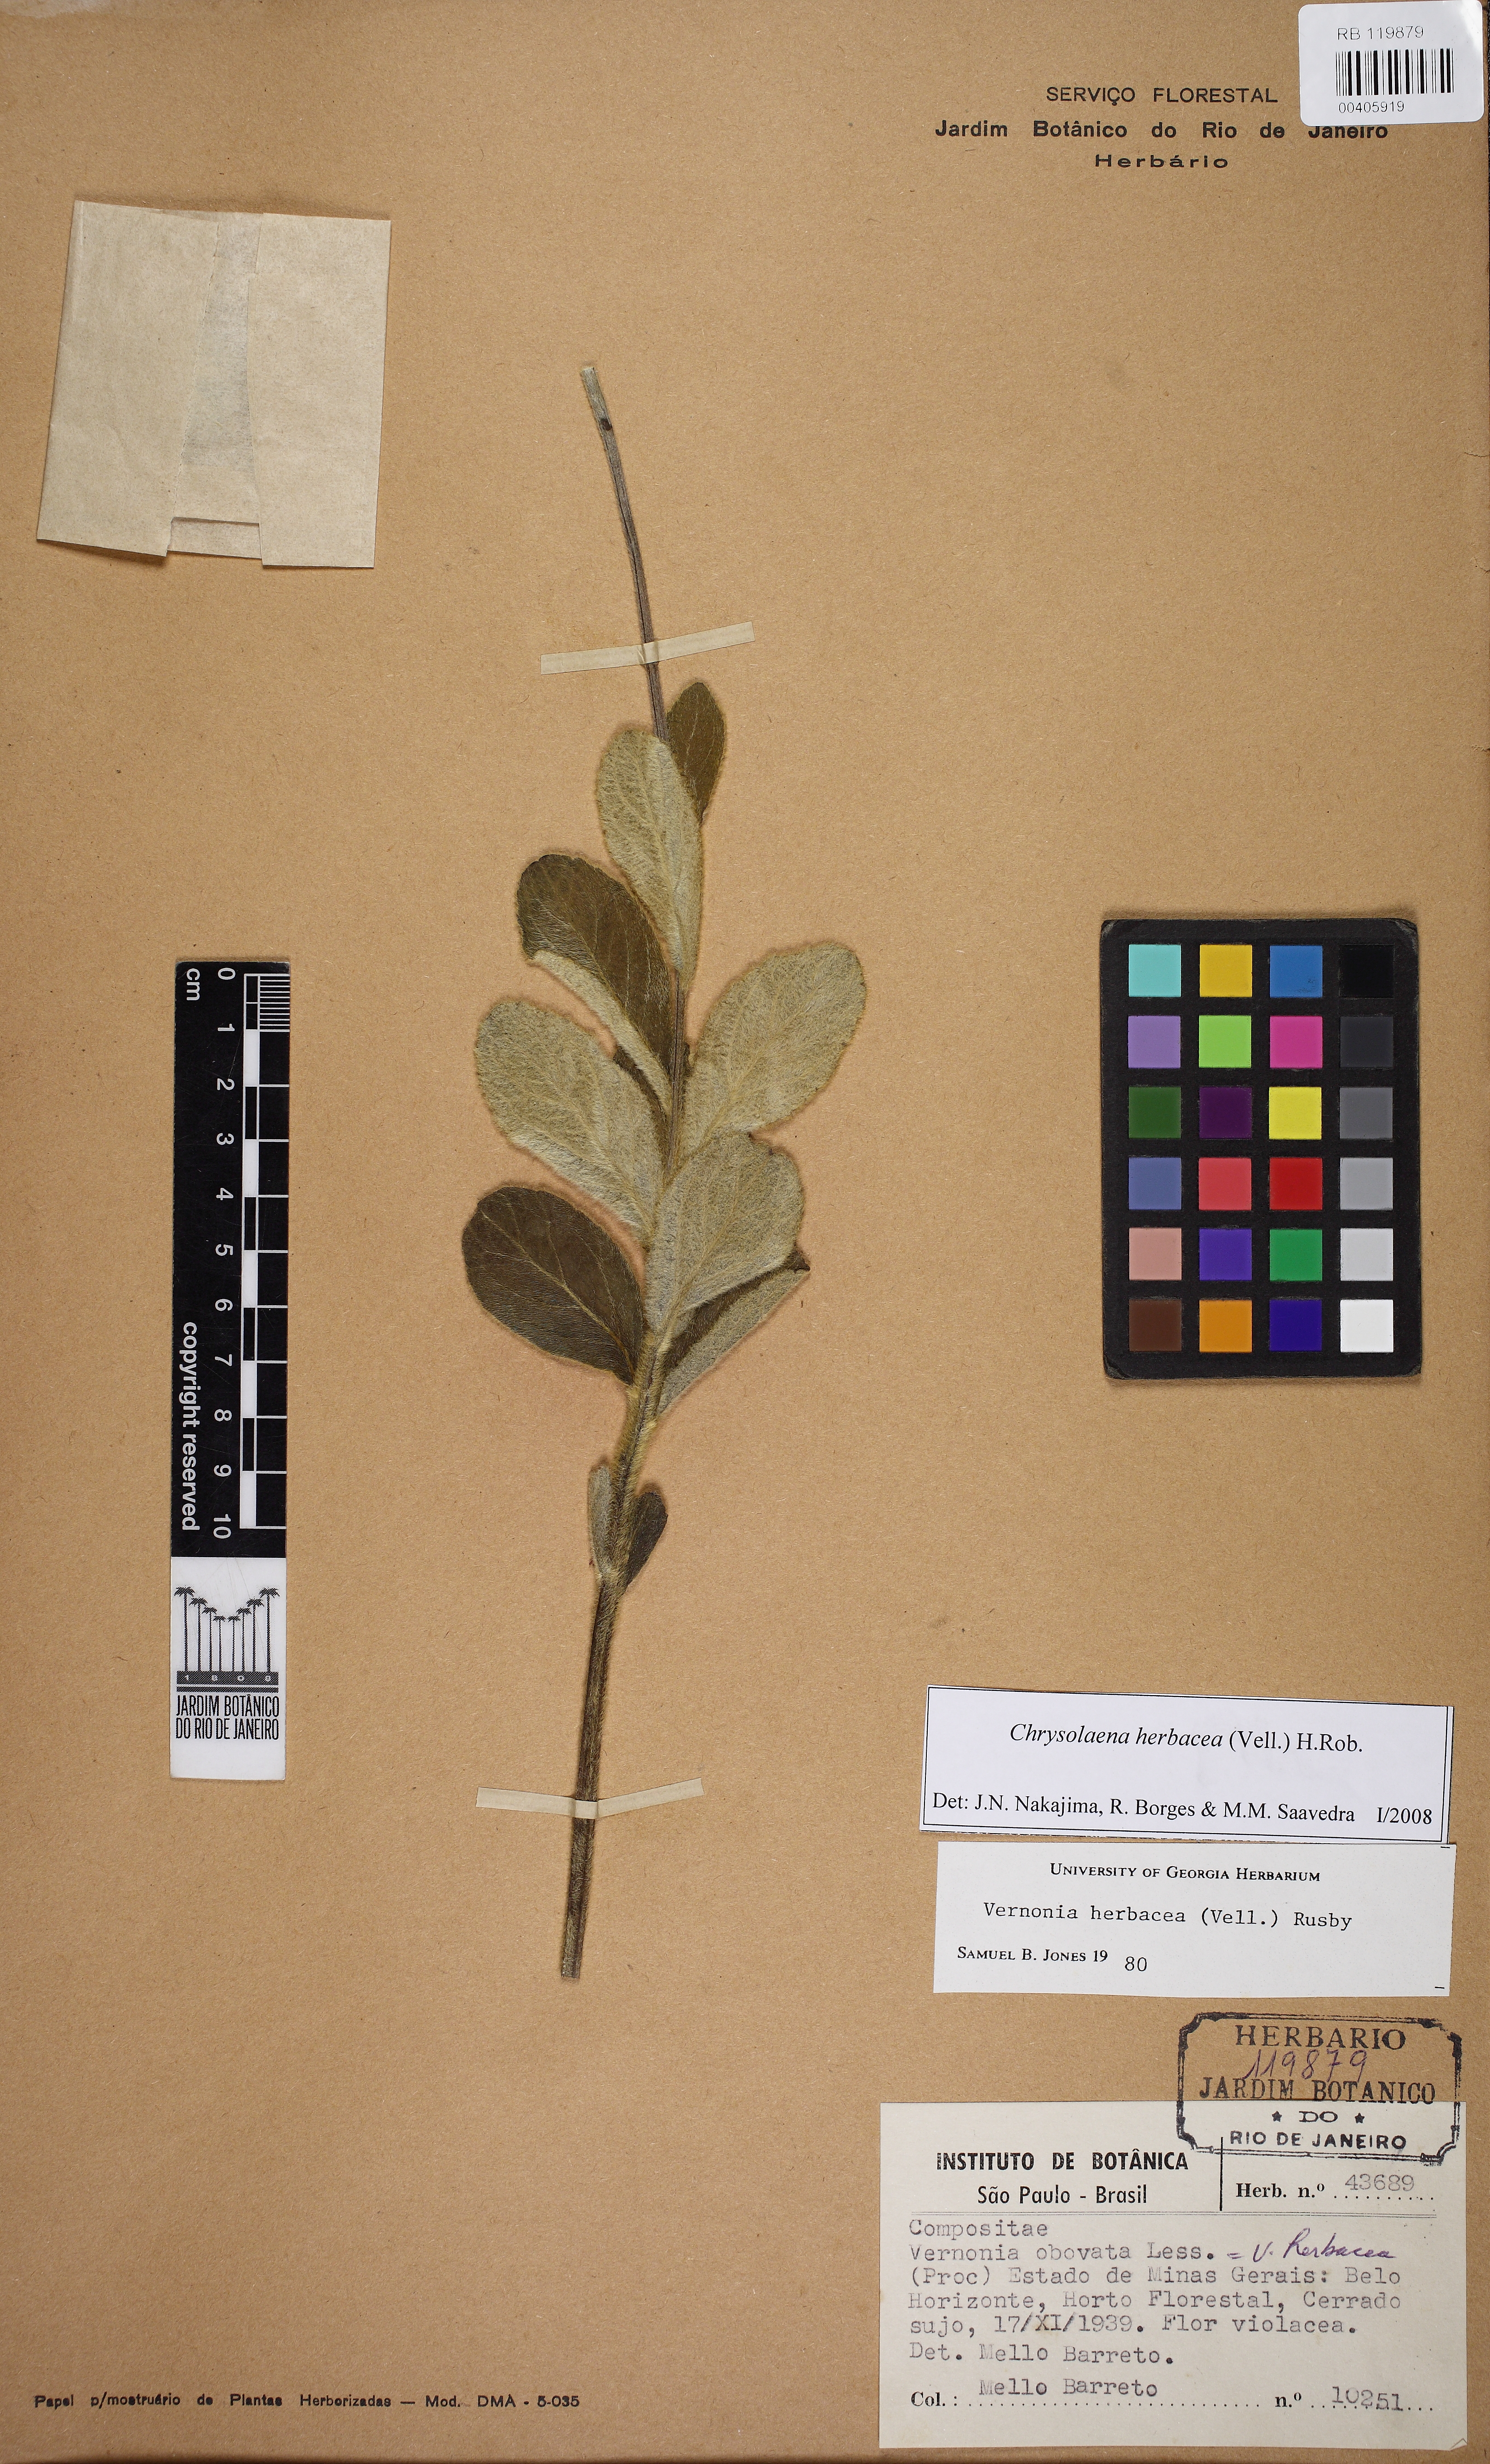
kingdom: Plantae
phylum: Tracheophyta
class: Magnoliopsida
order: Asterales
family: Asteraceae
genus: Chrysolaena
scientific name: Chrysolaena obovata
